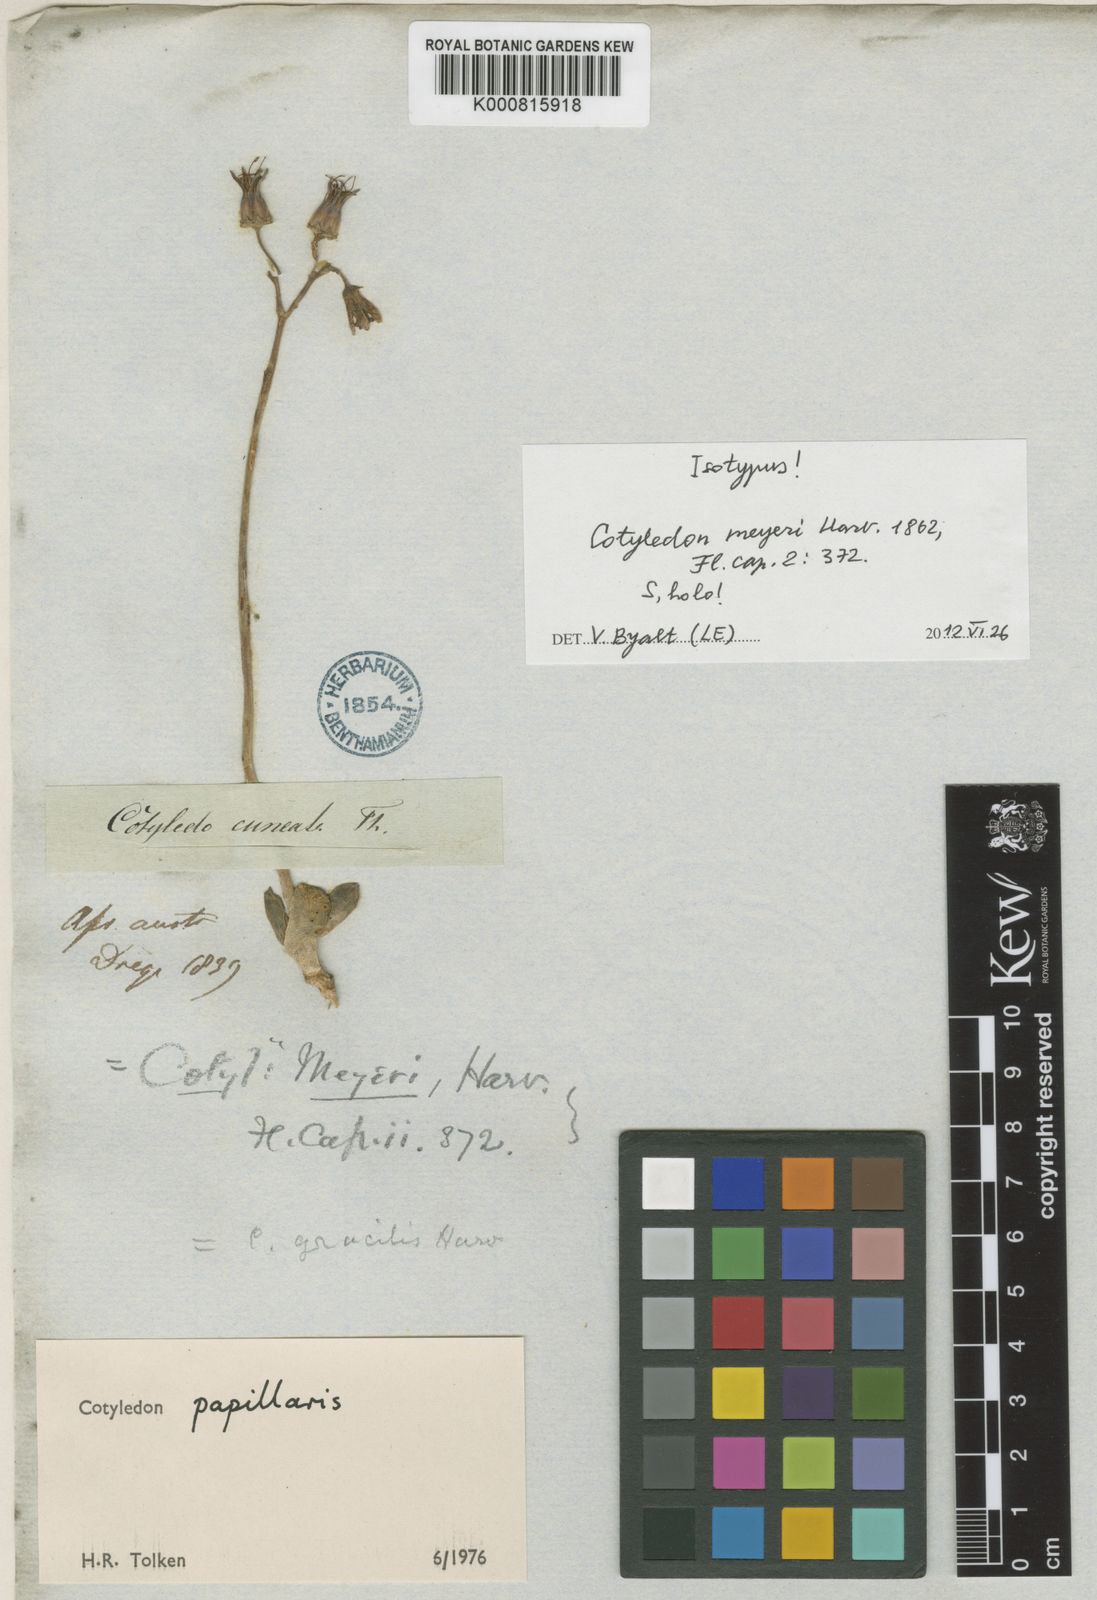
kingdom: Plantae
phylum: Tracheophyta
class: Magnoliopsida
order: Saxifragales
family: Crassulaceae
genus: Cotyledon
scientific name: Cotyledon papillaris
